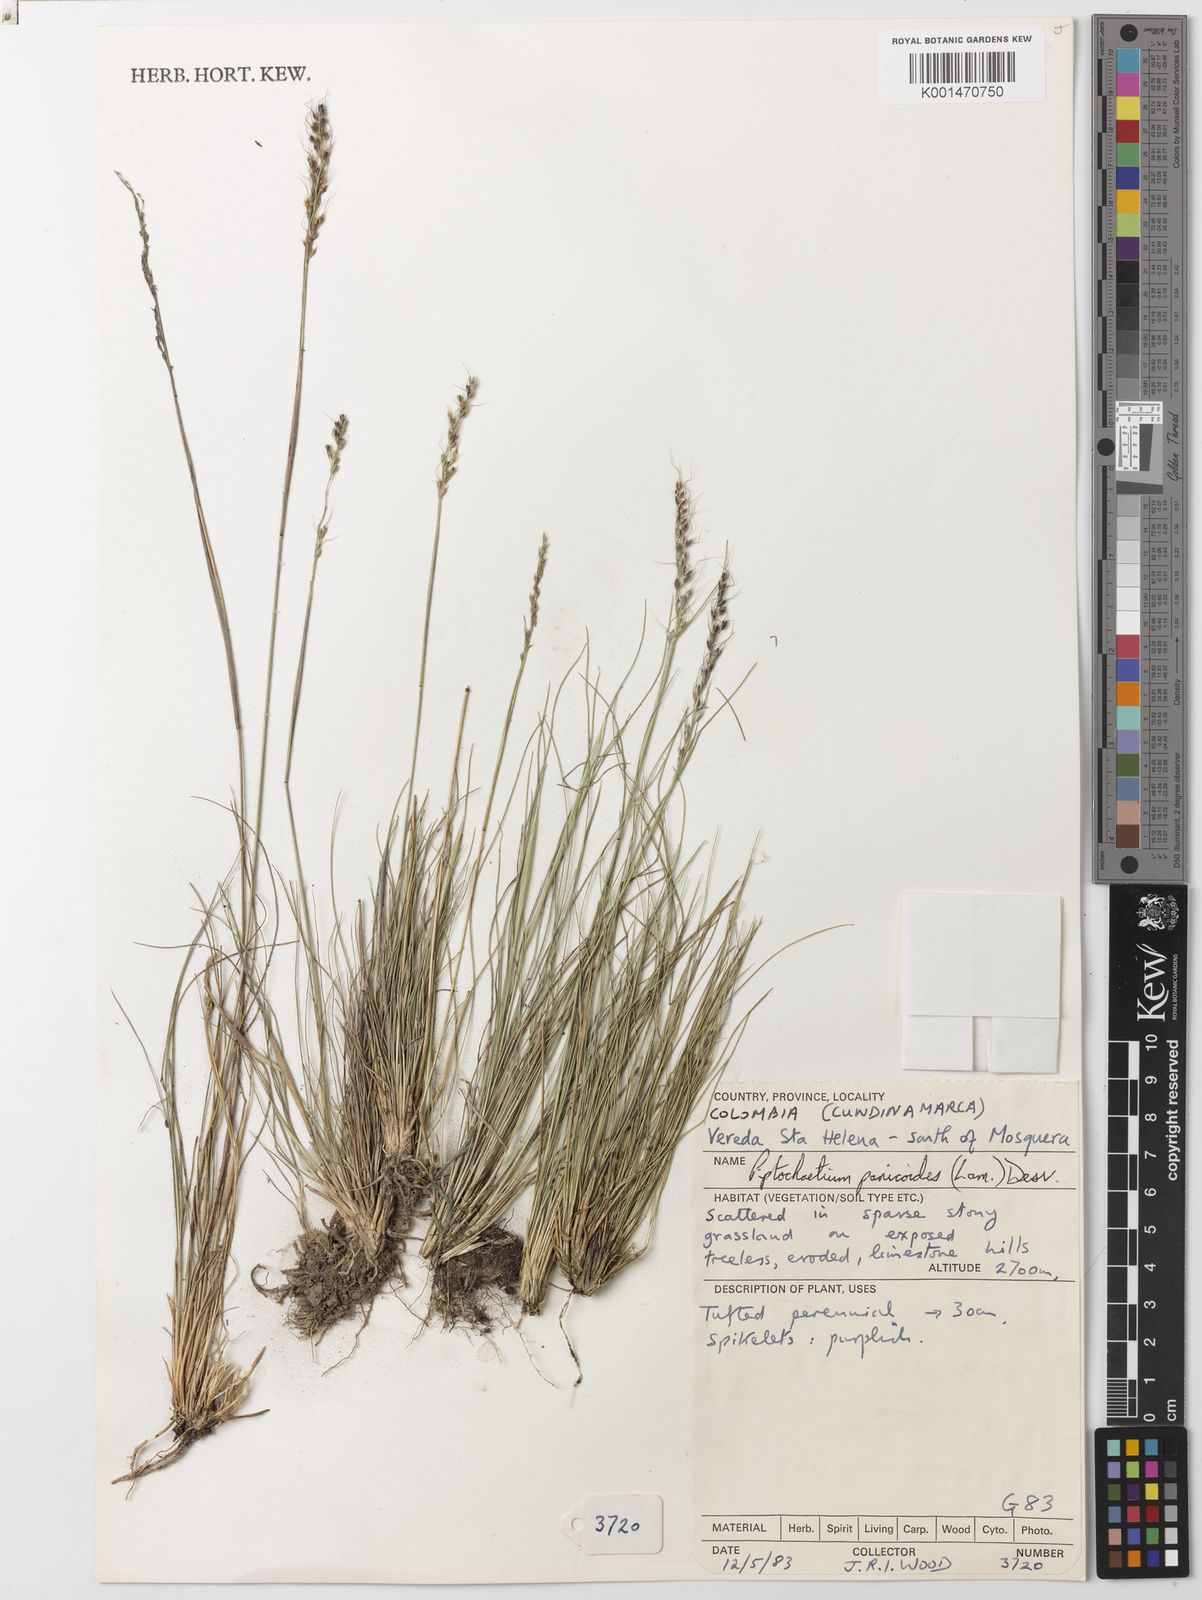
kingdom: Plantae
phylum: Tracheophyta
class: Liliopsida
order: Poales
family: Poaceae
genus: Piptochaetium
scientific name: Piptochaetium
